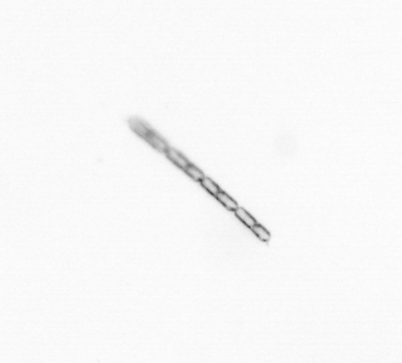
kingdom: Chromista
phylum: Ochrophyta
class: Bacillariophyceae
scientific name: Bacillariophyceae
